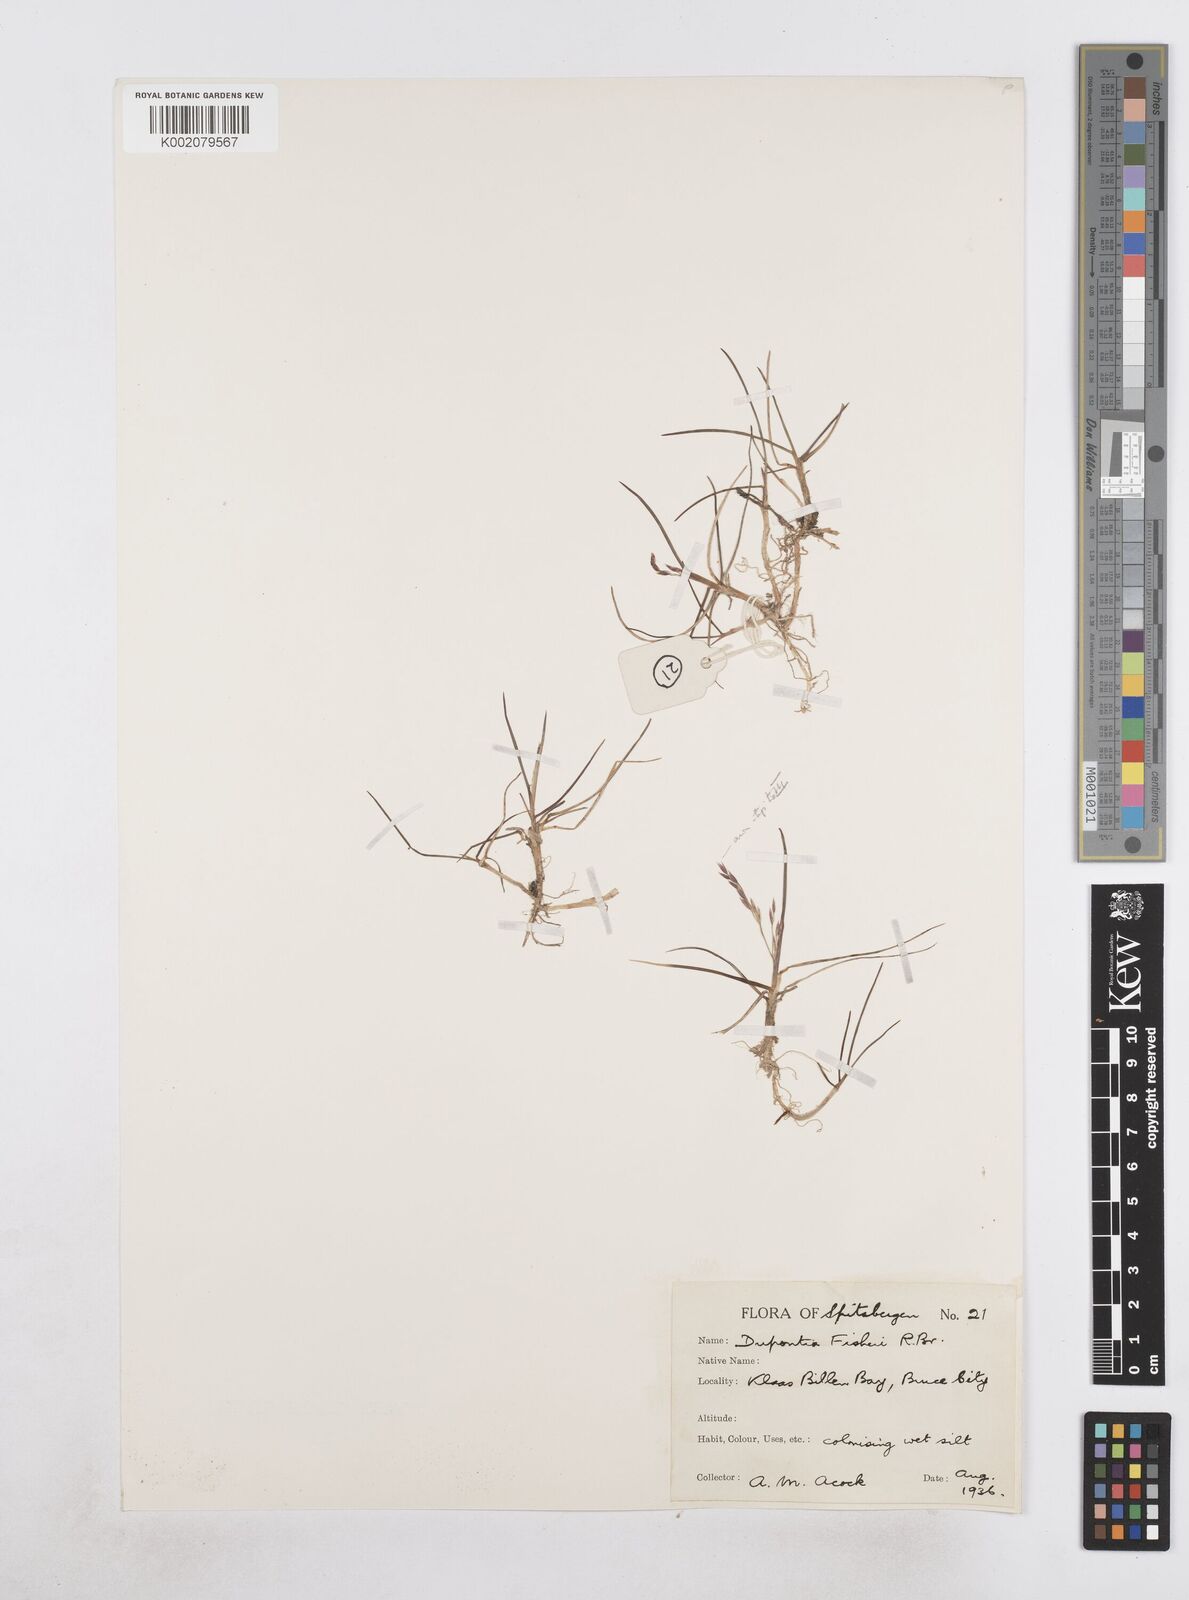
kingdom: Plantae
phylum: Tracheophyta
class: Liliopsida
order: Poales
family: Poaceae
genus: Dupontia
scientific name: Dupontia fisheri
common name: Tundra grass
